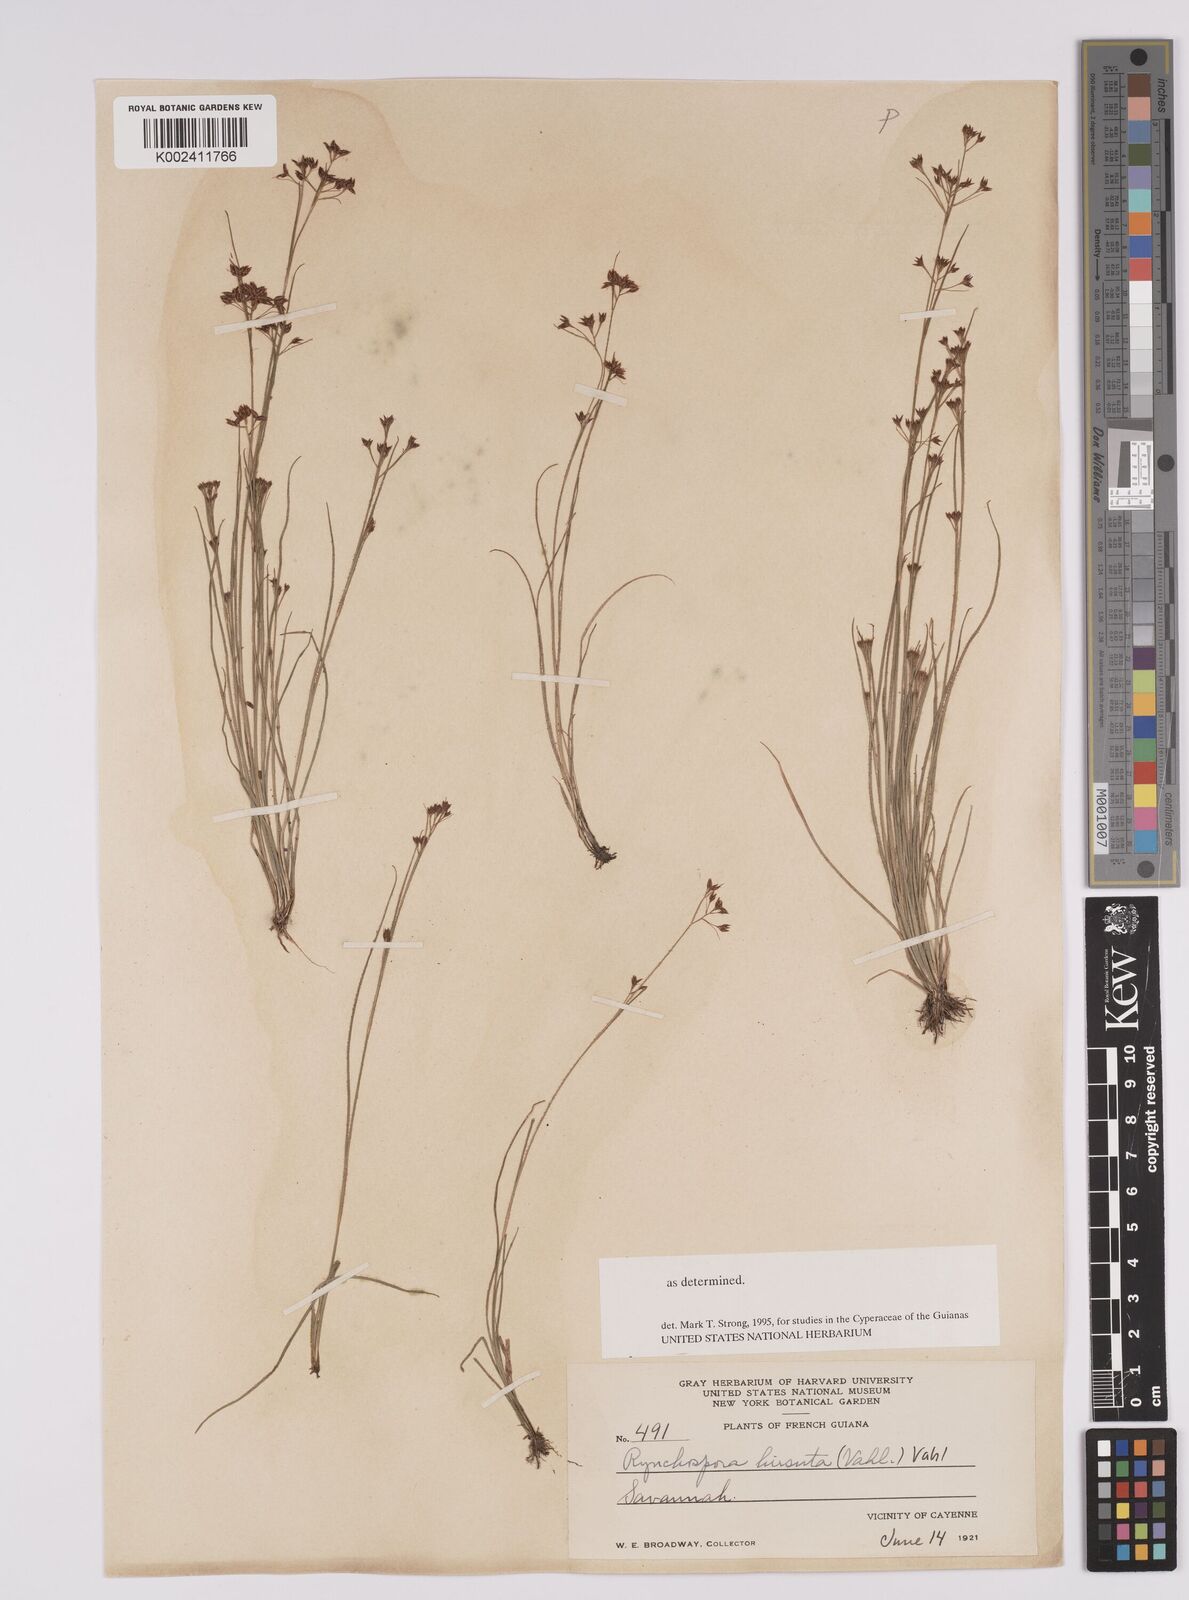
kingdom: Plantae
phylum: Tracheophyta
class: Liliopsida
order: Poales
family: Cyperaceae
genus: Rhynchospora
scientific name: Rhynchospora hirsuta
